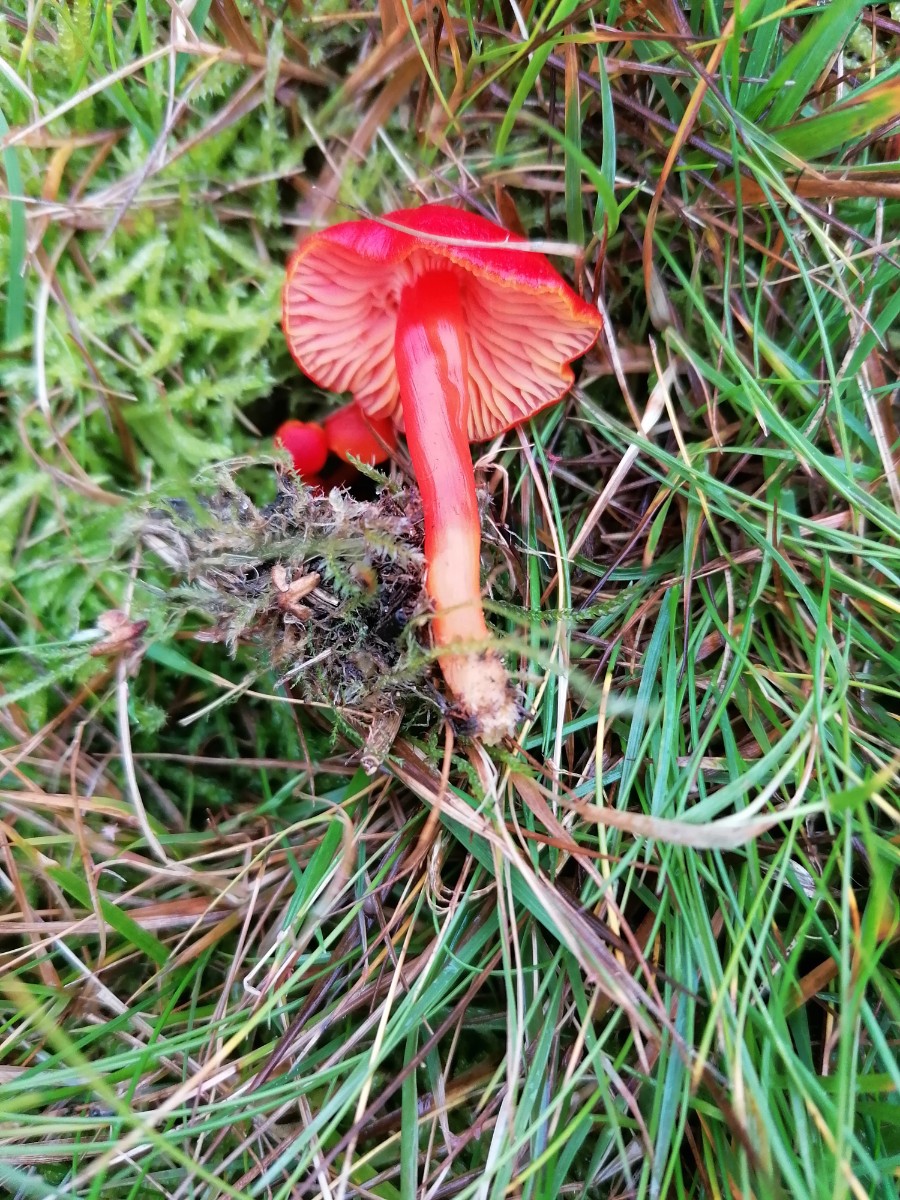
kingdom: Fungi
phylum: Basidiomycota
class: Agaricomycetes
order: Agaricales
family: Hygrophoraceae
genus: Hygrocybe
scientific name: Hygrocybe coccinea
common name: cinnober-vokshat
